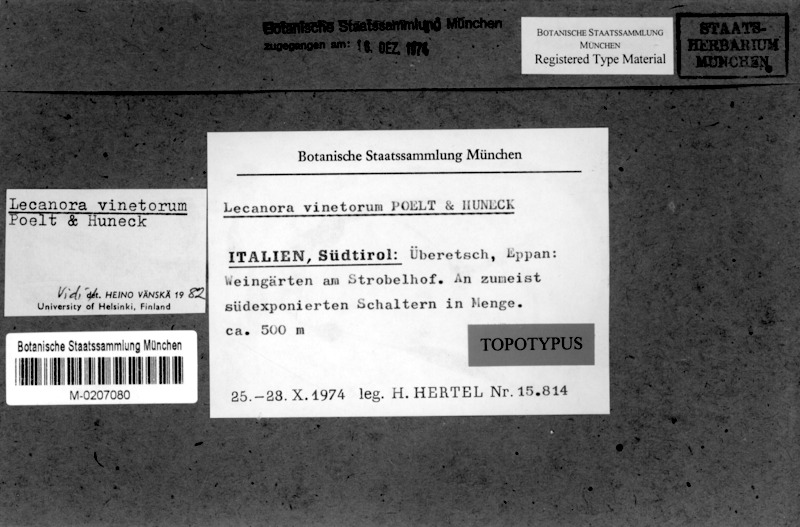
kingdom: Fungi
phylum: Ascomycota
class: Lecanoromycetes
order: Lecanorales
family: Lecanoraceae
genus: Lecanora
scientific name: Lecanora vinetorum
